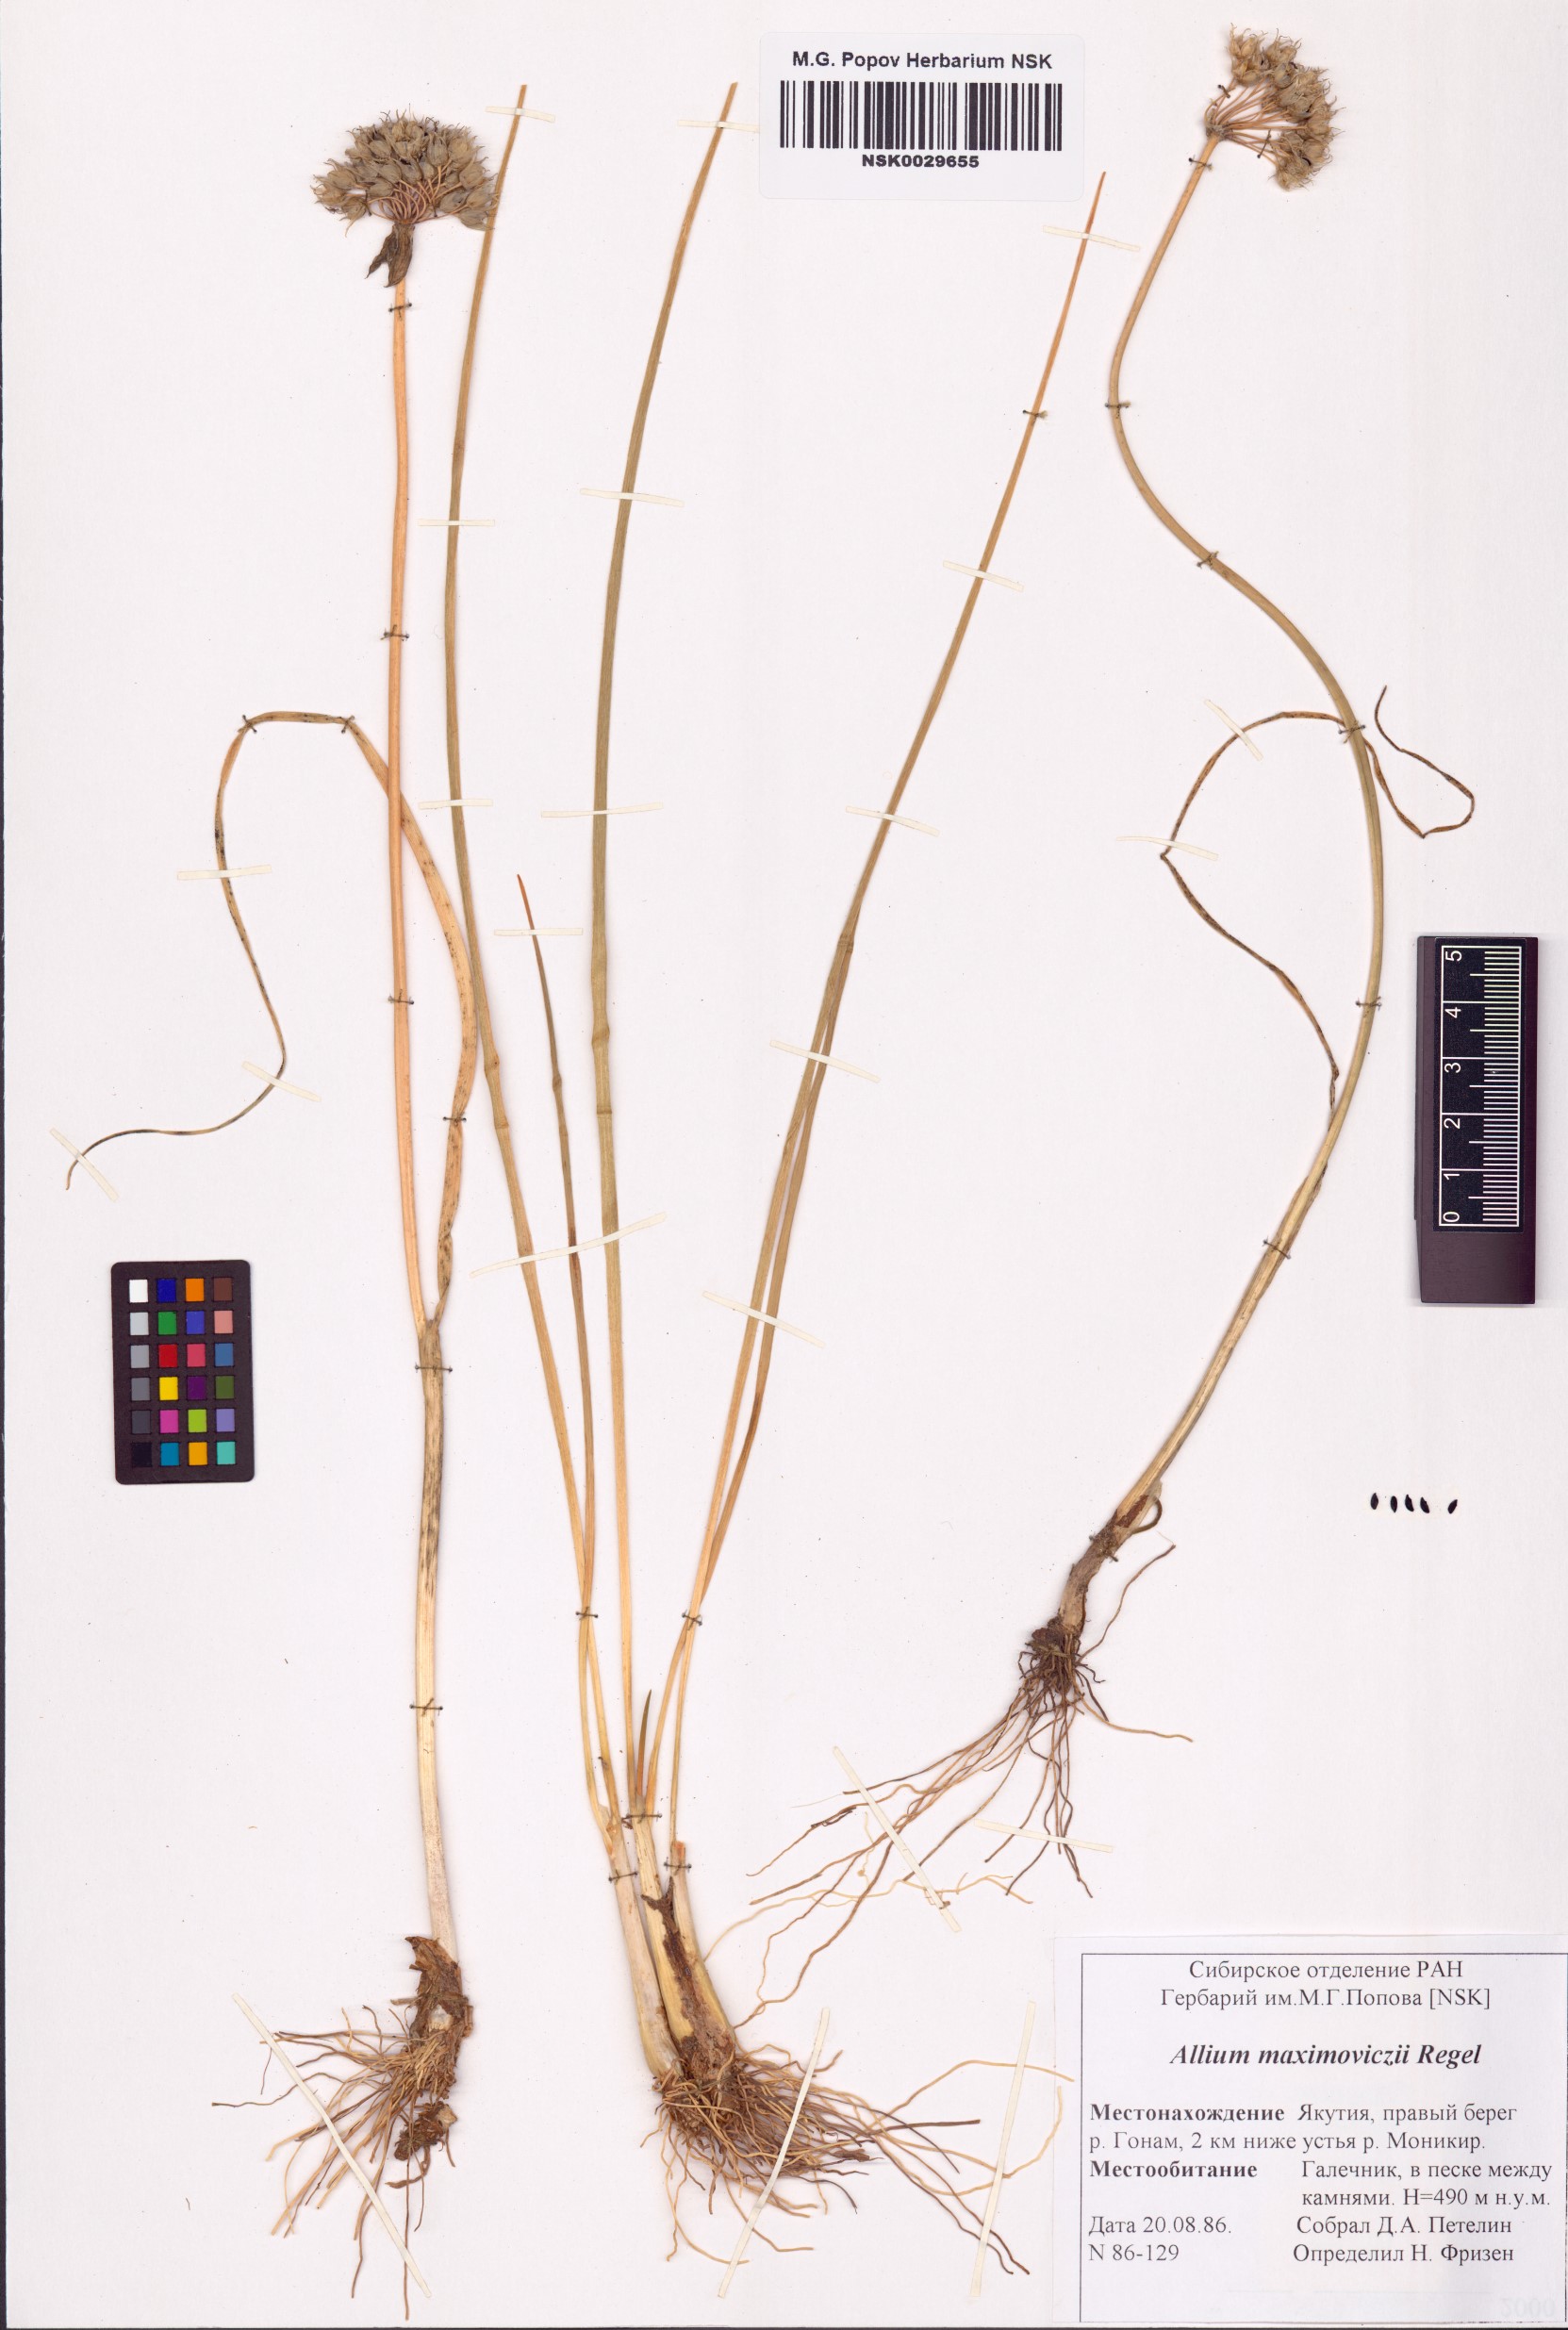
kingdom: Plantae
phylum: Tracheophyta
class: Liliopsida
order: Asparagales
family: Amaryllidaceae
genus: Allium
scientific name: Allium maximowiczii
